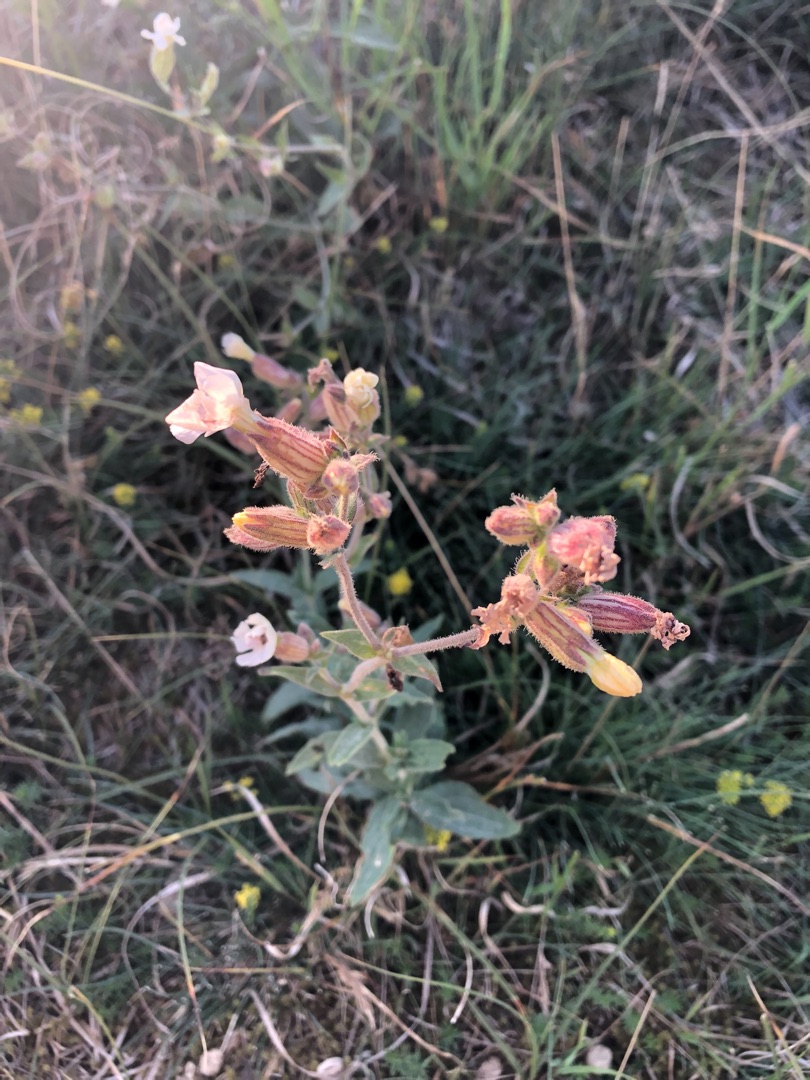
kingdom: Plantae
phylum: Tracheophyta
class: Magnoliopsida
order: Caryophyllales
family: Caryophyllaceae
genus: Silene
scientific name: Silene latifolia
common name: Aftenpragtstjerne
